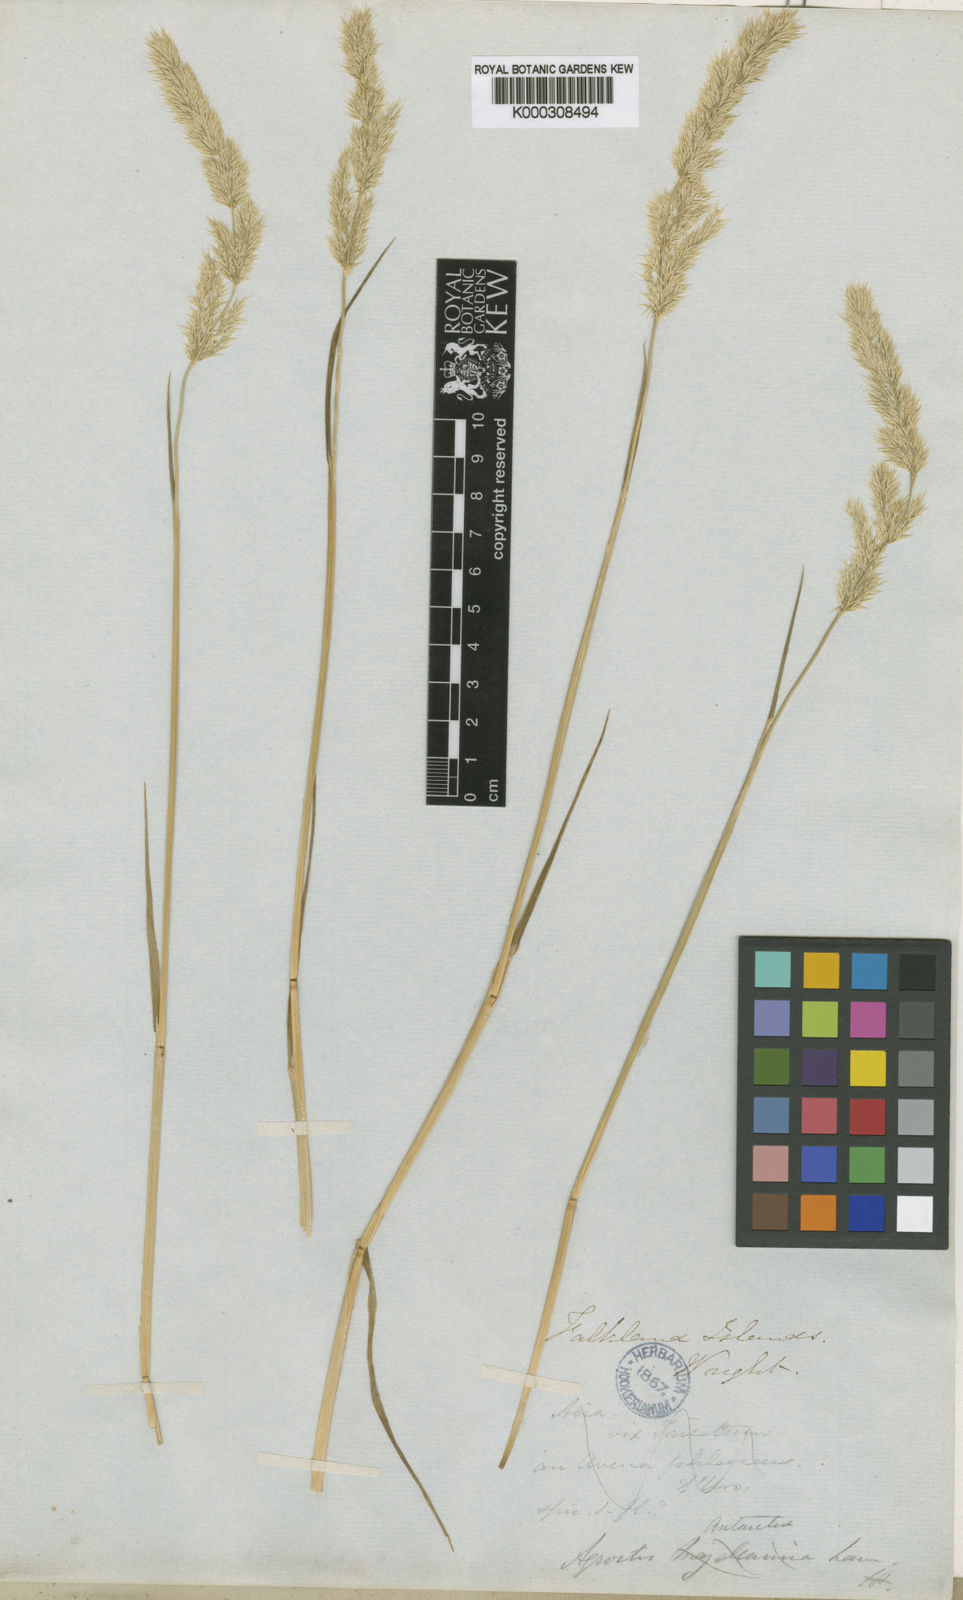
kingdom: Plantae
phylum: Tracheophyta
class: Liliopsida
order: Poales
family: Poaceae
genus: Polypogon
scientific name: Polypogon
